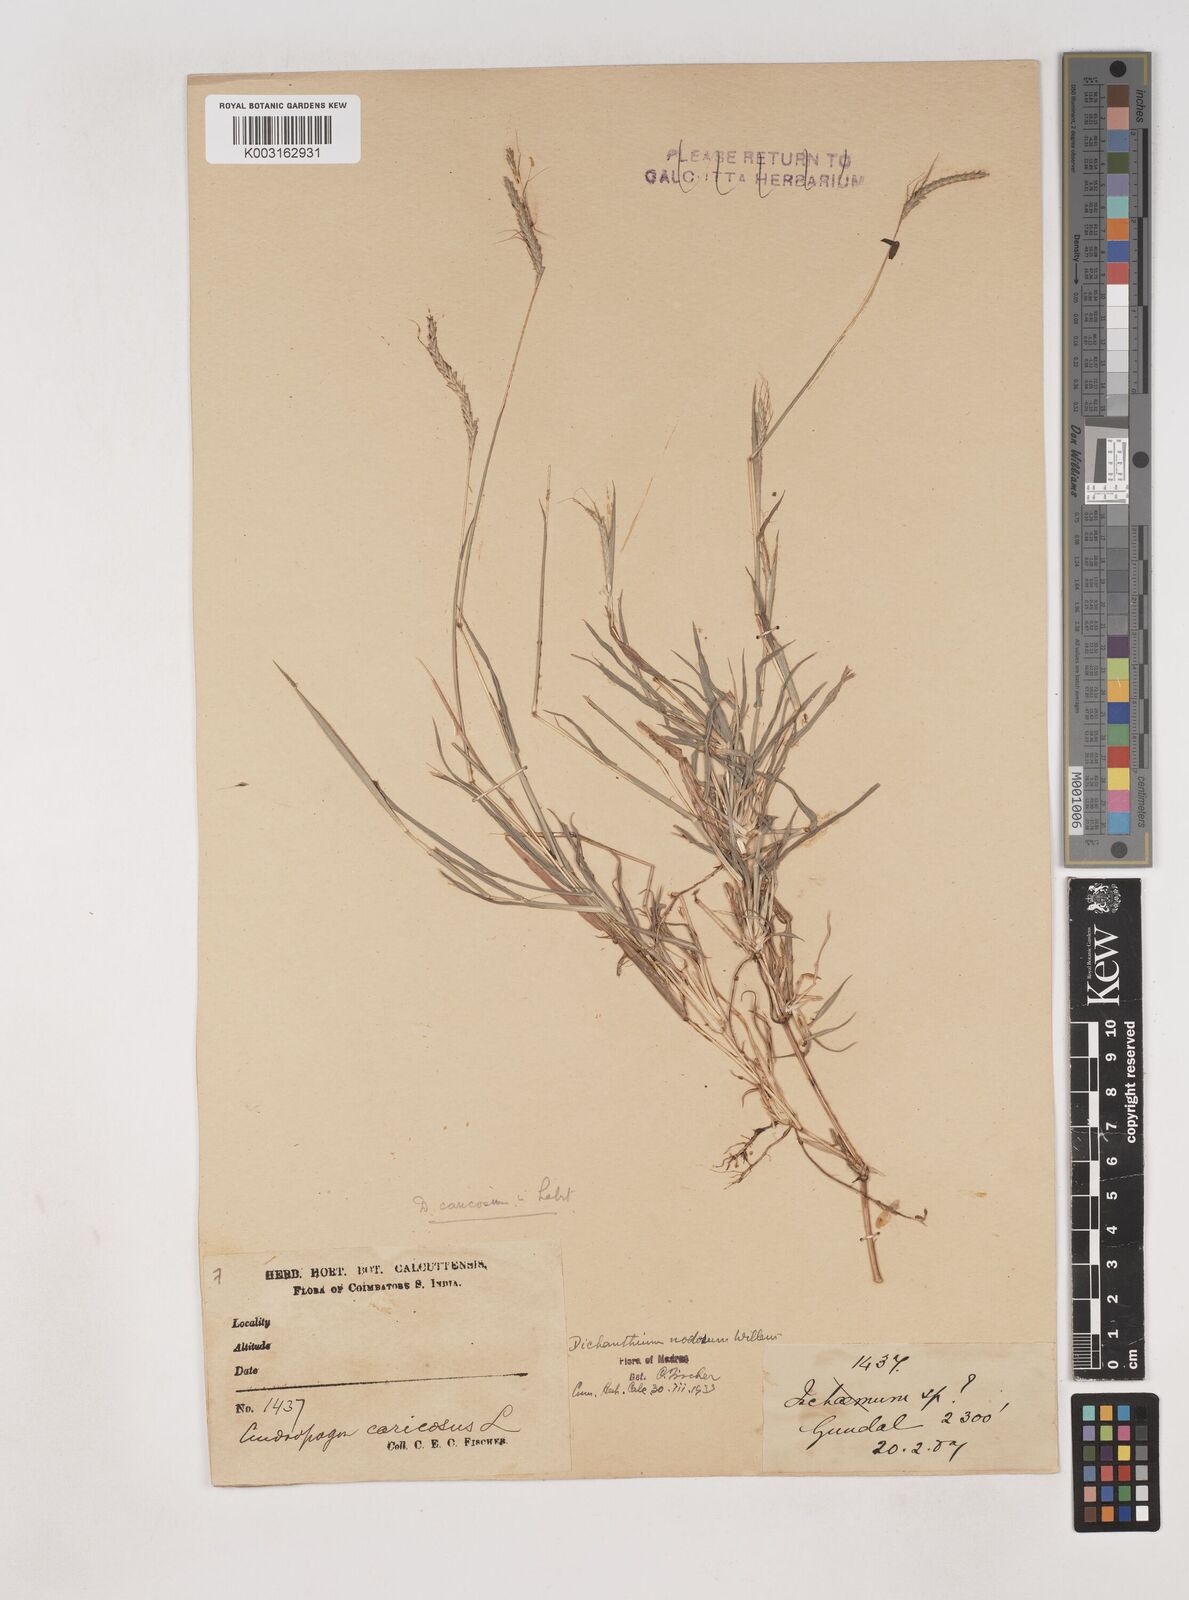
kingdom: Plantae
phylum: Tracheophyta
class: Liliopsida
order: Poales
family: Poaceae
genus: Dichanthium
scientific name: Dichanthium aristatum
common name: Angleton bluestem
